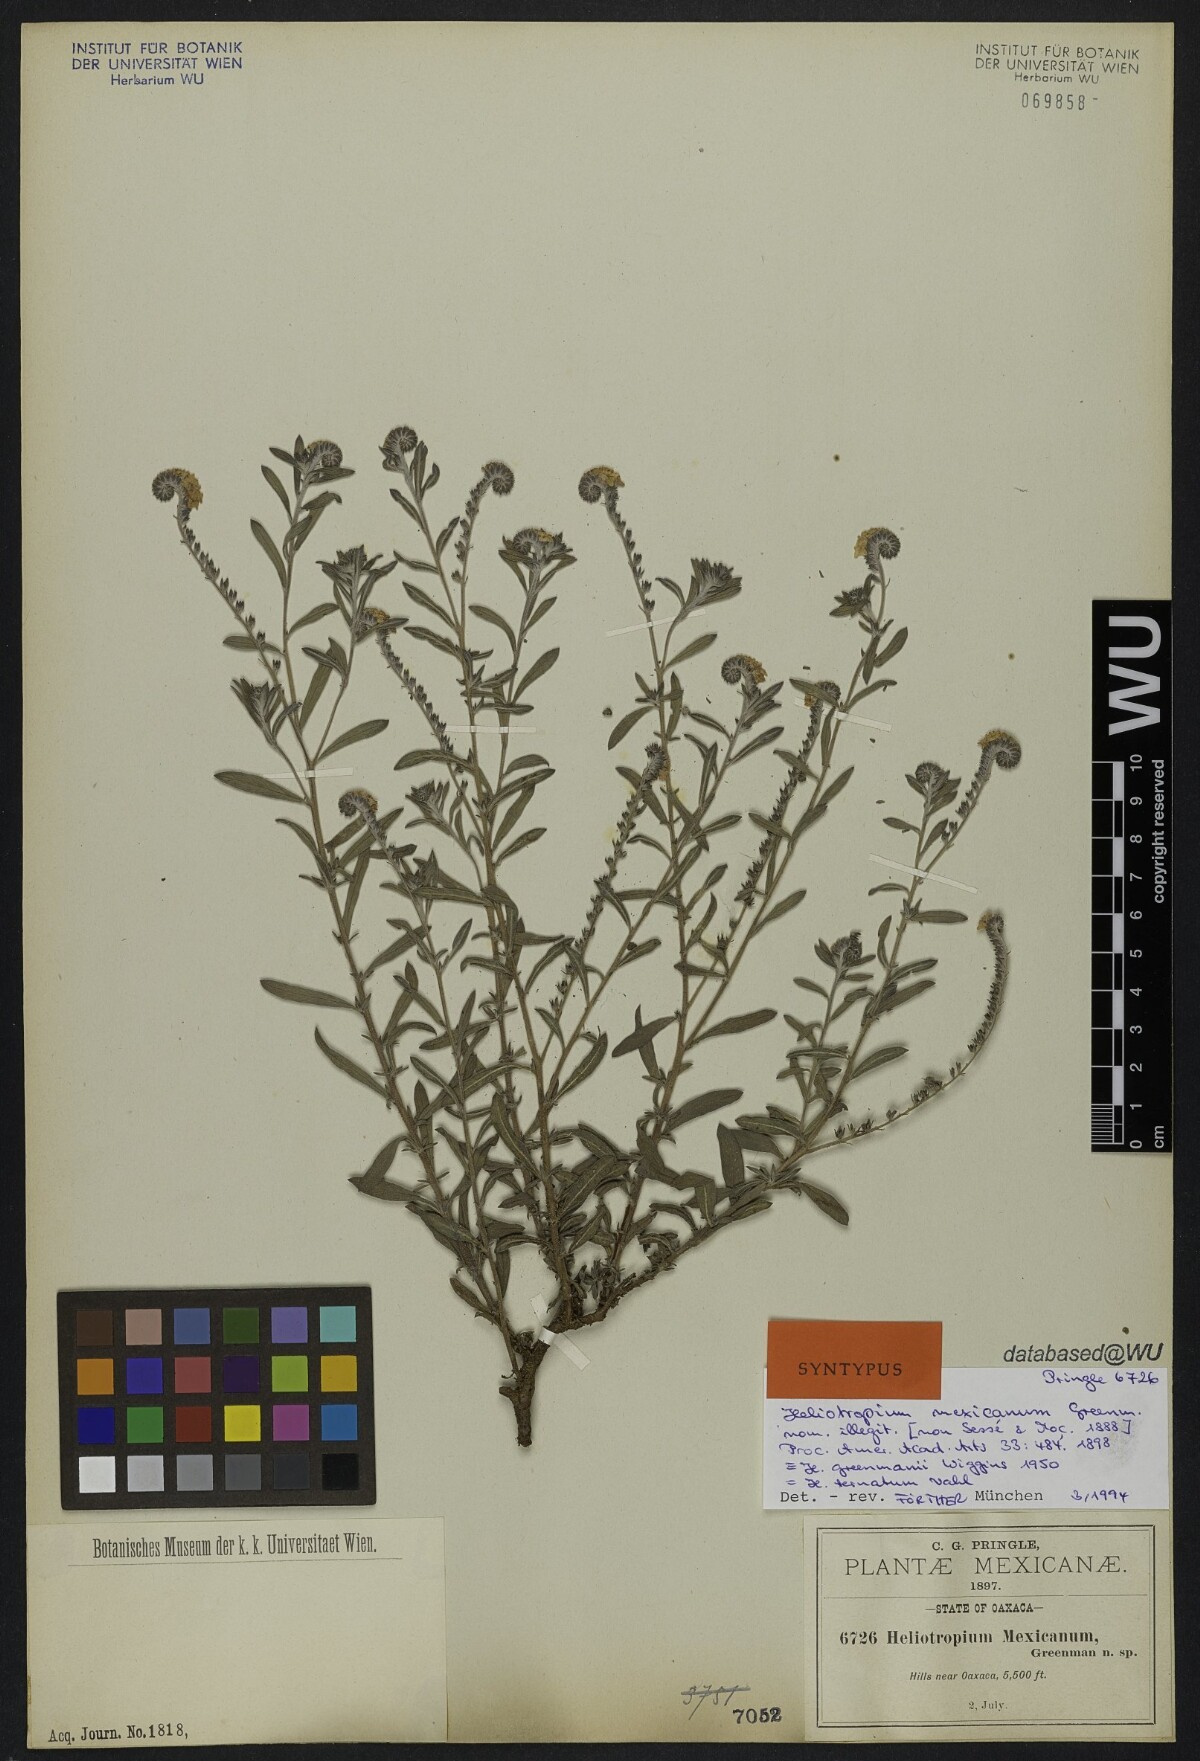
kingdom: Plantae
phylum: Tracheophyta
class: Magnoliopsida
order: Boraginales
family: Heliotropiaceae
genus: Euploca
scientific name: Euploca humilis
